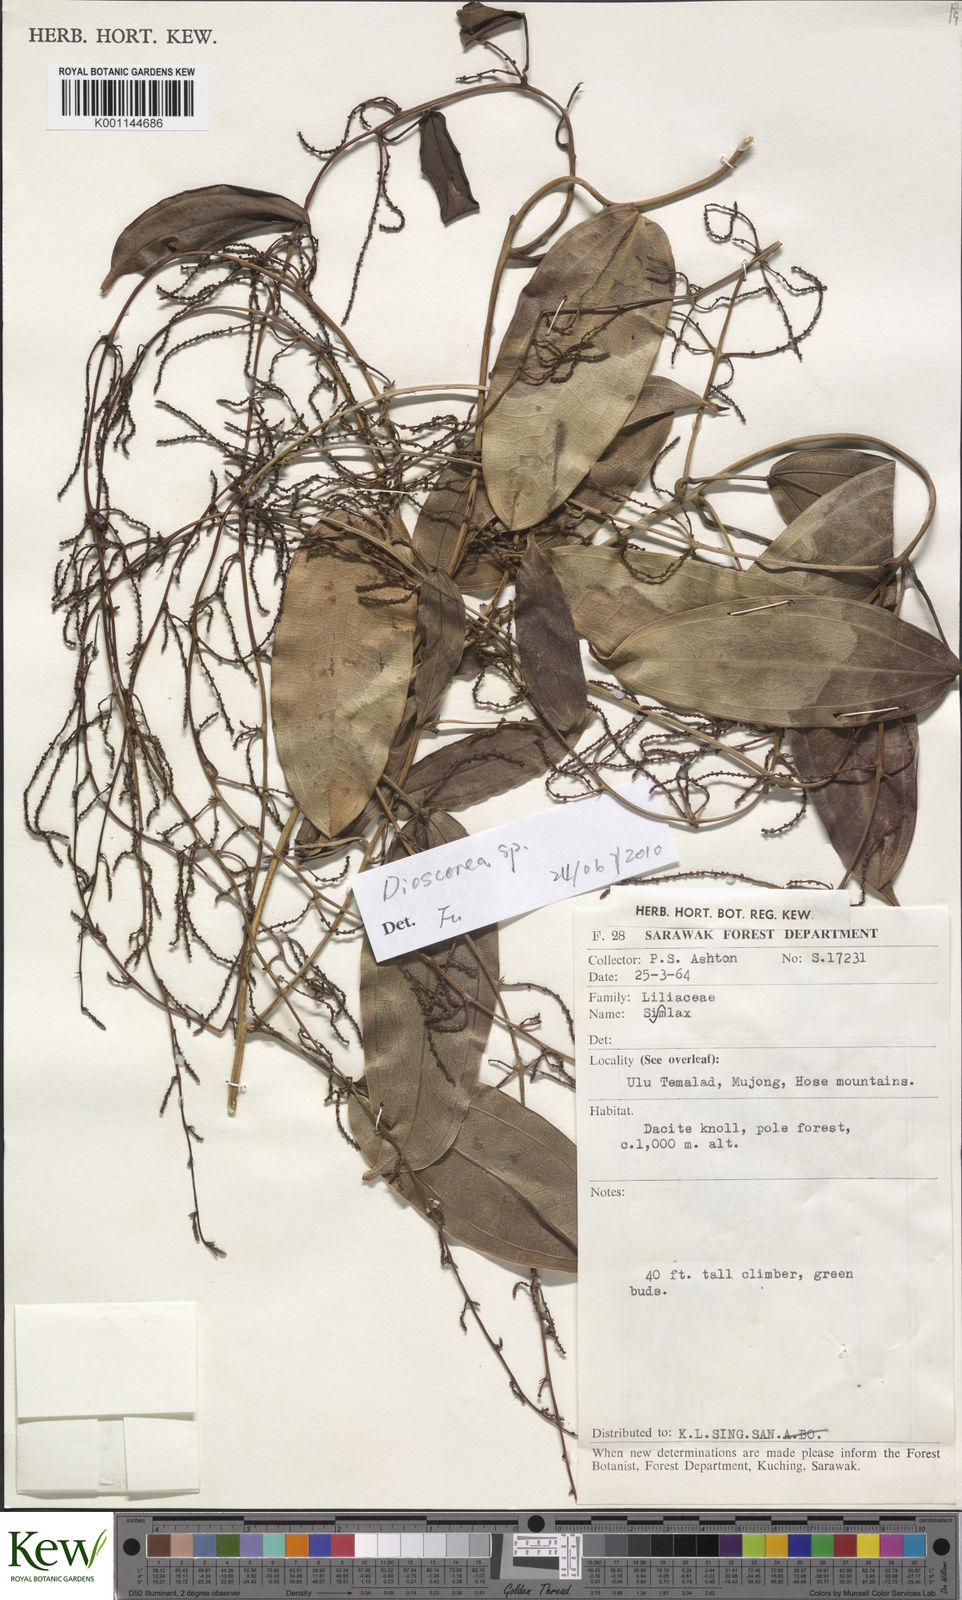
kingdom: Plantae
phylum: Tracheophyta
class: Liliopsida
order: Dioscoreales
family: Dioscoreaceae
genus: Dioscorea
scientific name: Dioscorea
